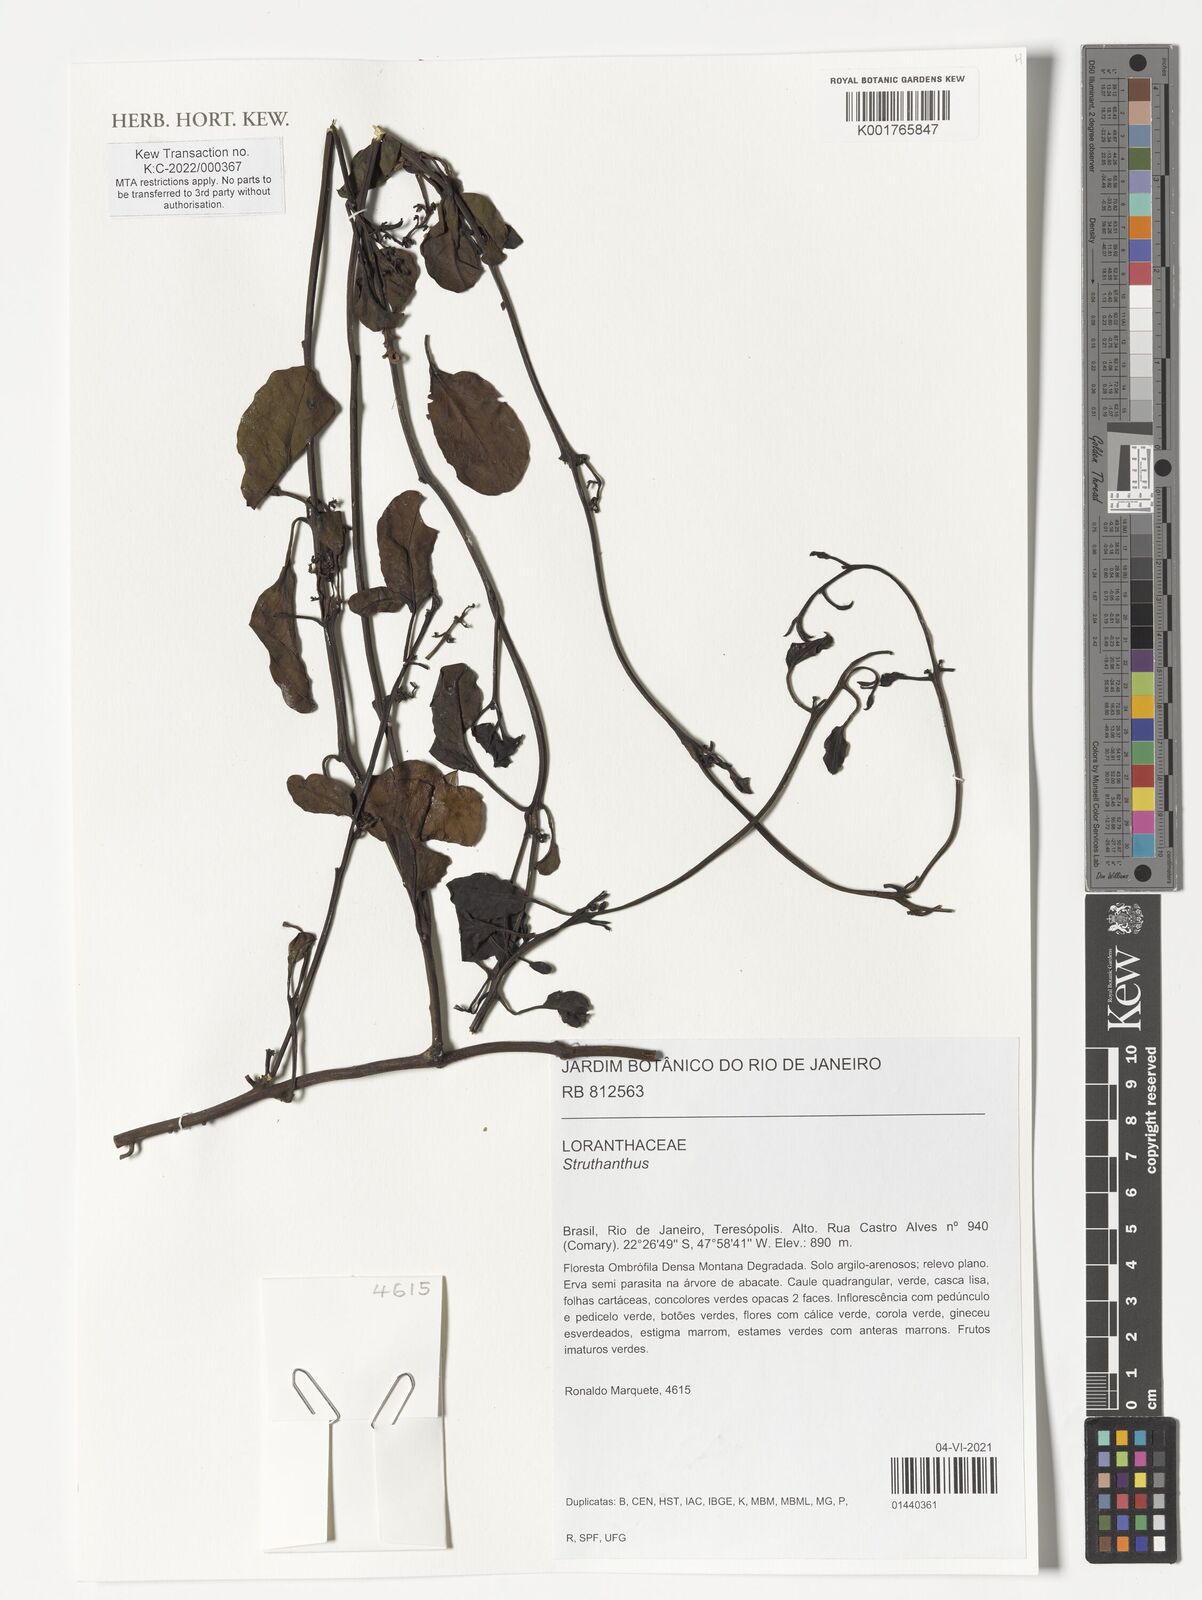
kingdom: Plantae
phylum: Tracheophyta
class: Magnoliopsida
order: Santalales
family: Loranthaceae
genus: Struthanthus
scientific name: Struthanthus
